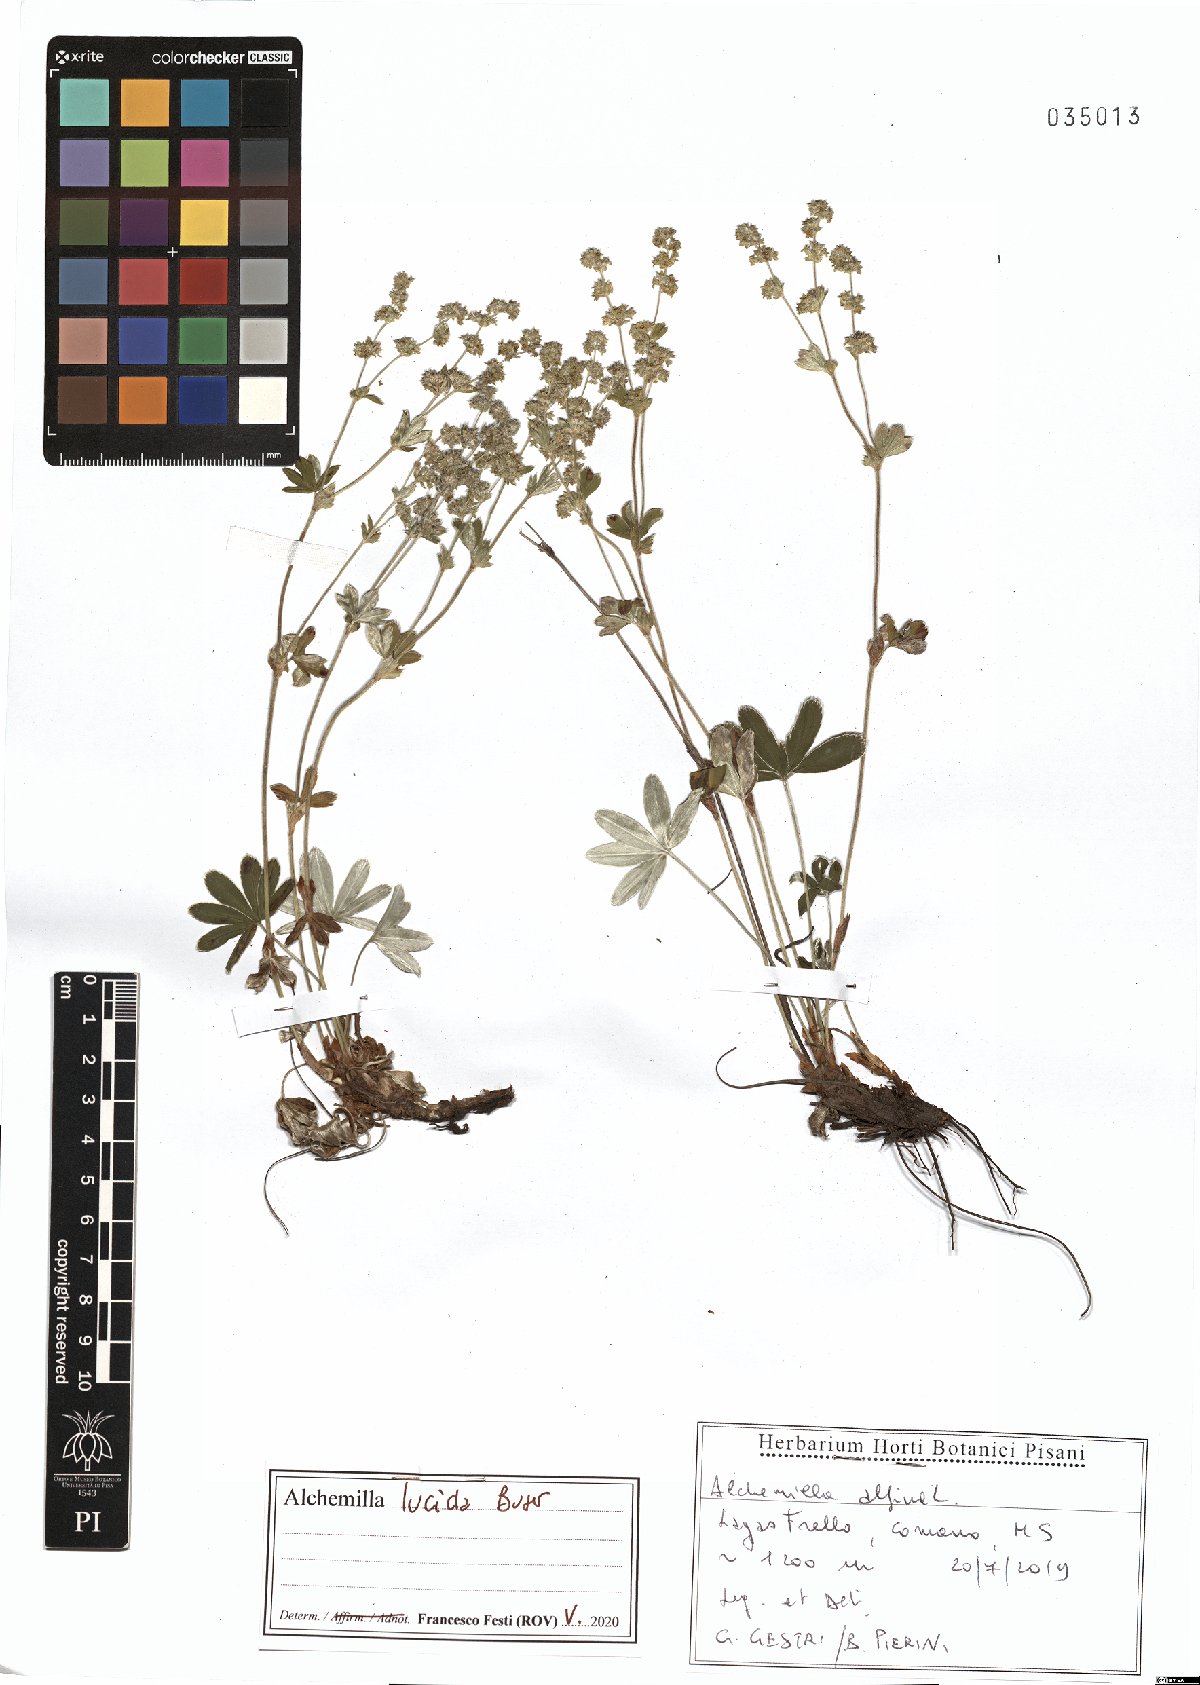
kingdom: Plantae
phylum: Tracheophyta
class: Magnoliopsida
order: Rosales
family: Rosaceae
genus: Alchemilla
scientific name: Alchemilla lucida
